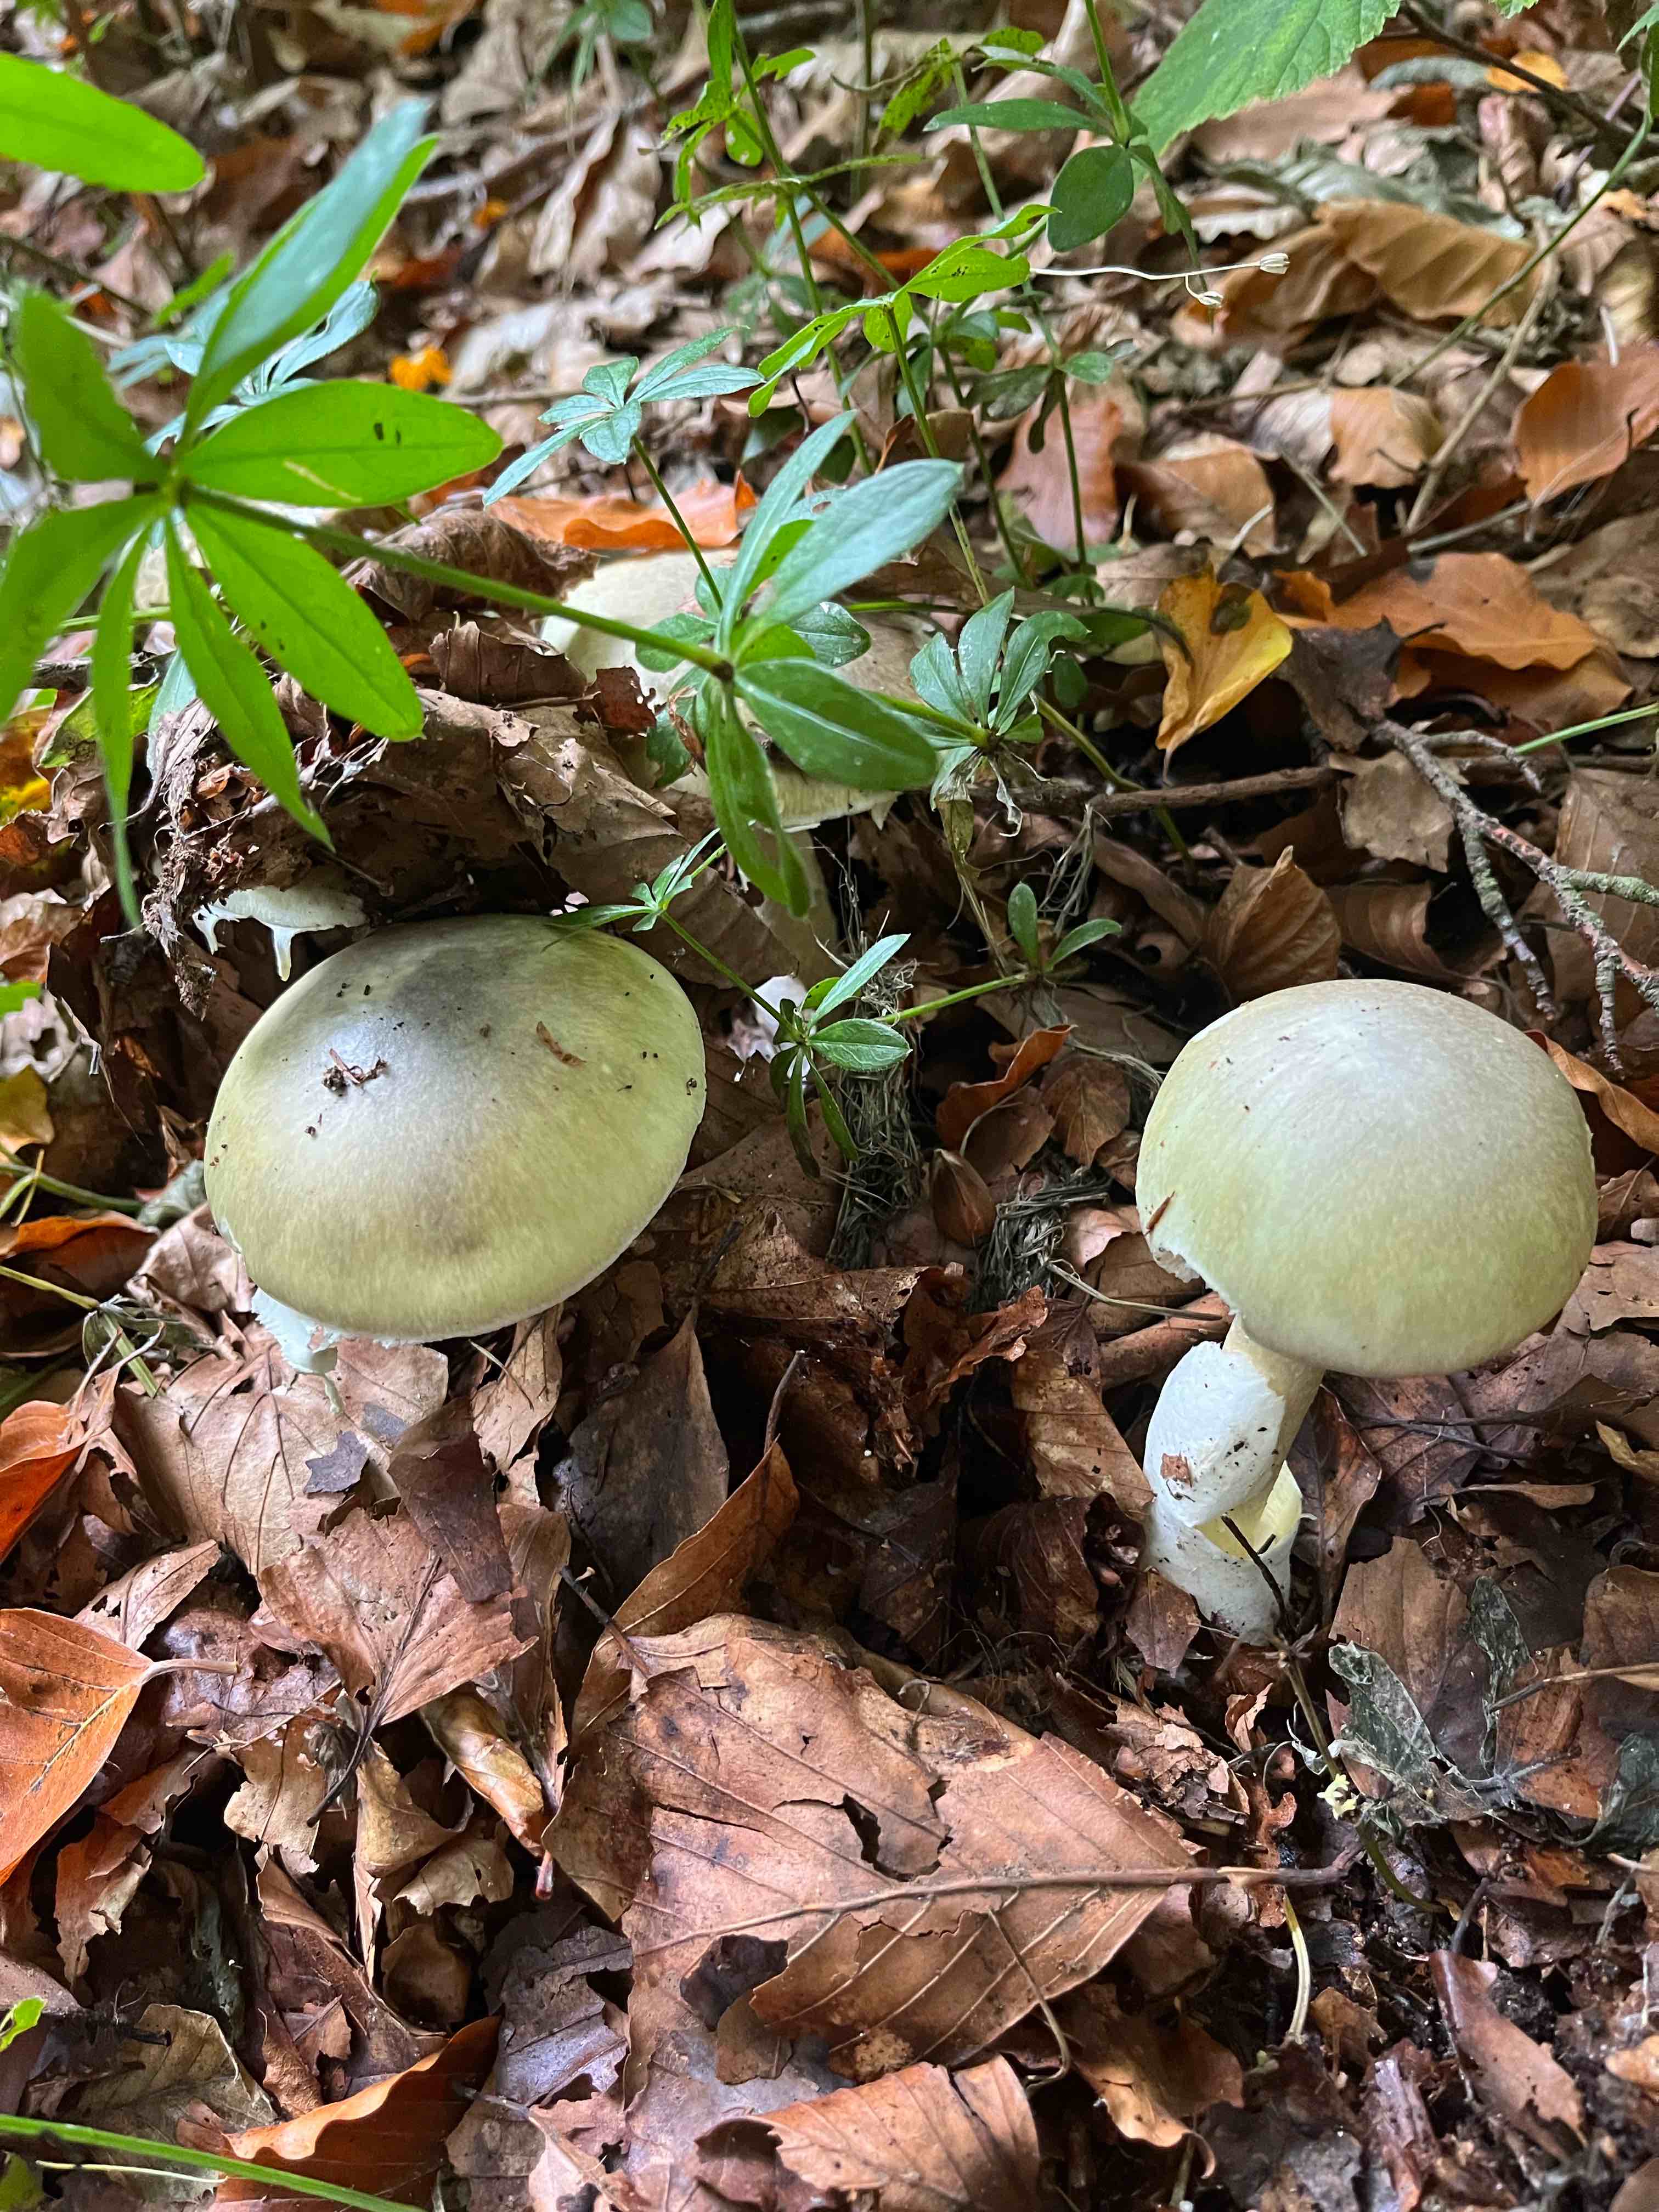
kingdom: Fungi
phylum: Basidiomycota
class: Agaricomycetes
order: Agaricales
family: Amanitaceae
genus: Amanita
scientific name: Amanita phalloides
